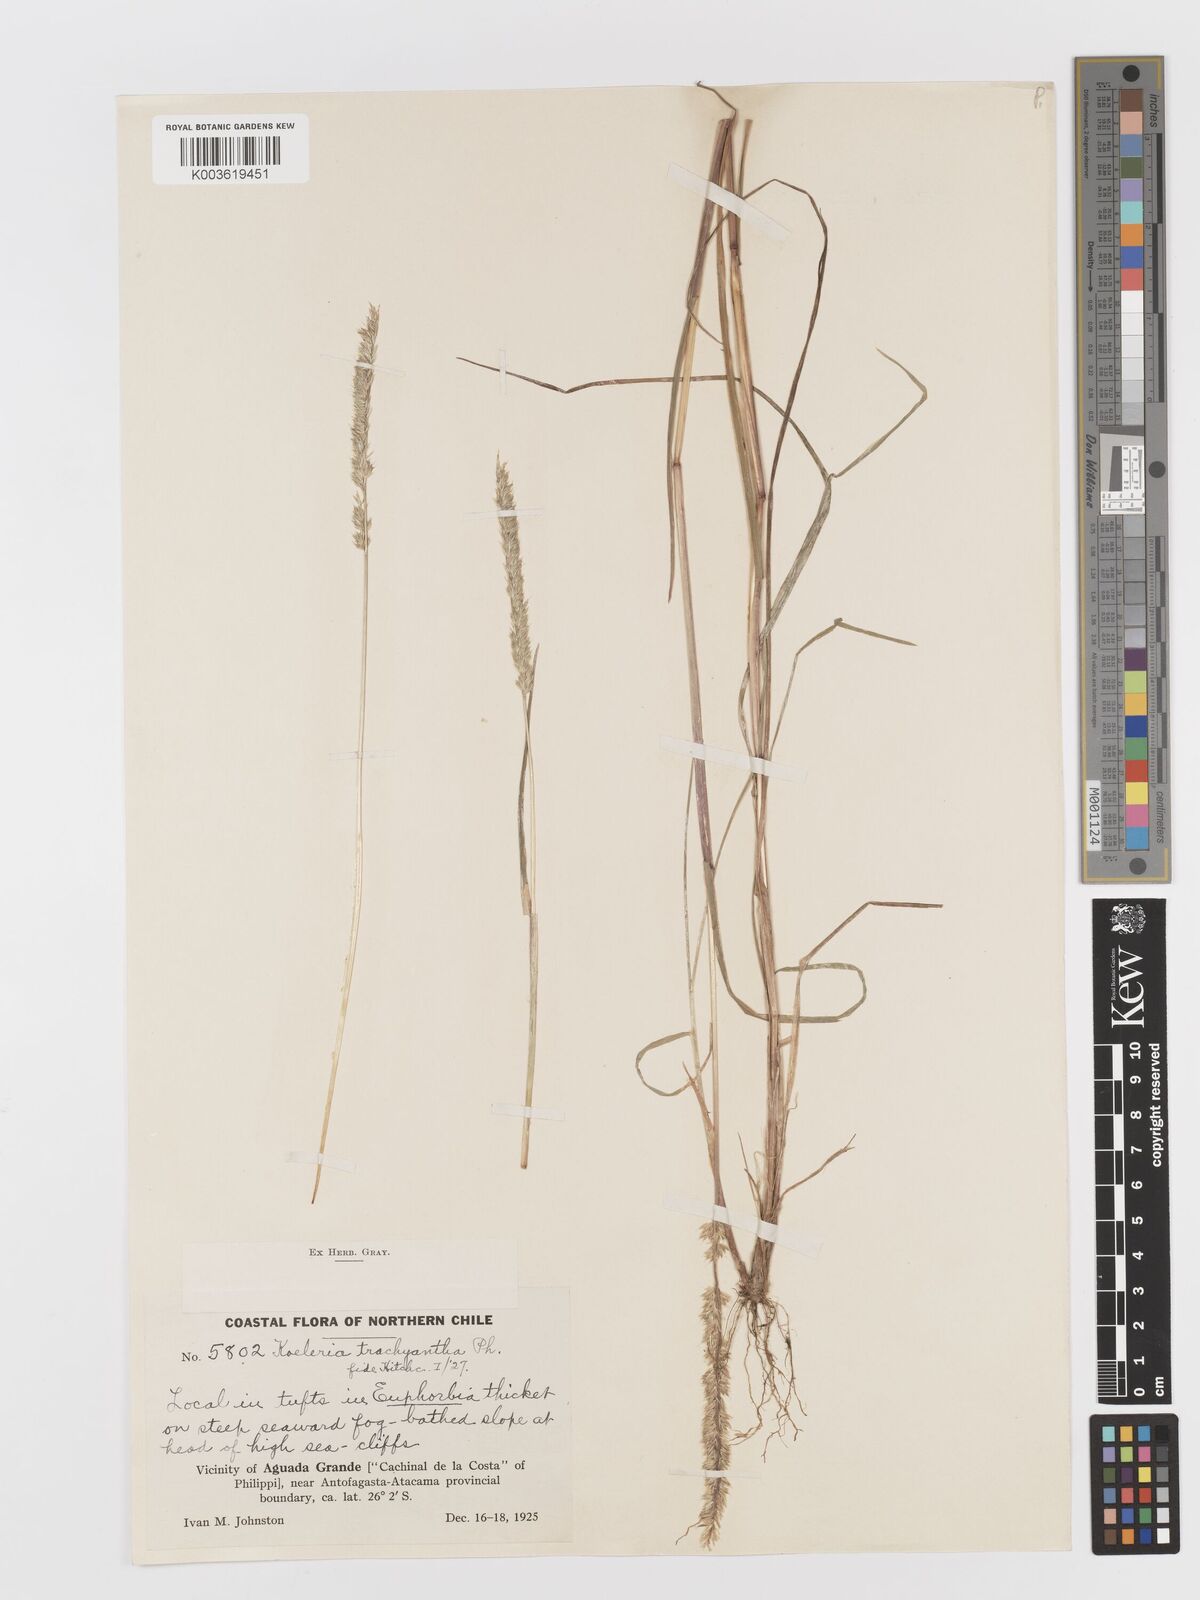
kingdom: Plantae
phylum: Tracheophyta
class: Liliopsida
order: Poales
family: Poaceae
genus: Rostraria
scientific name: Rostraria trachyantha
